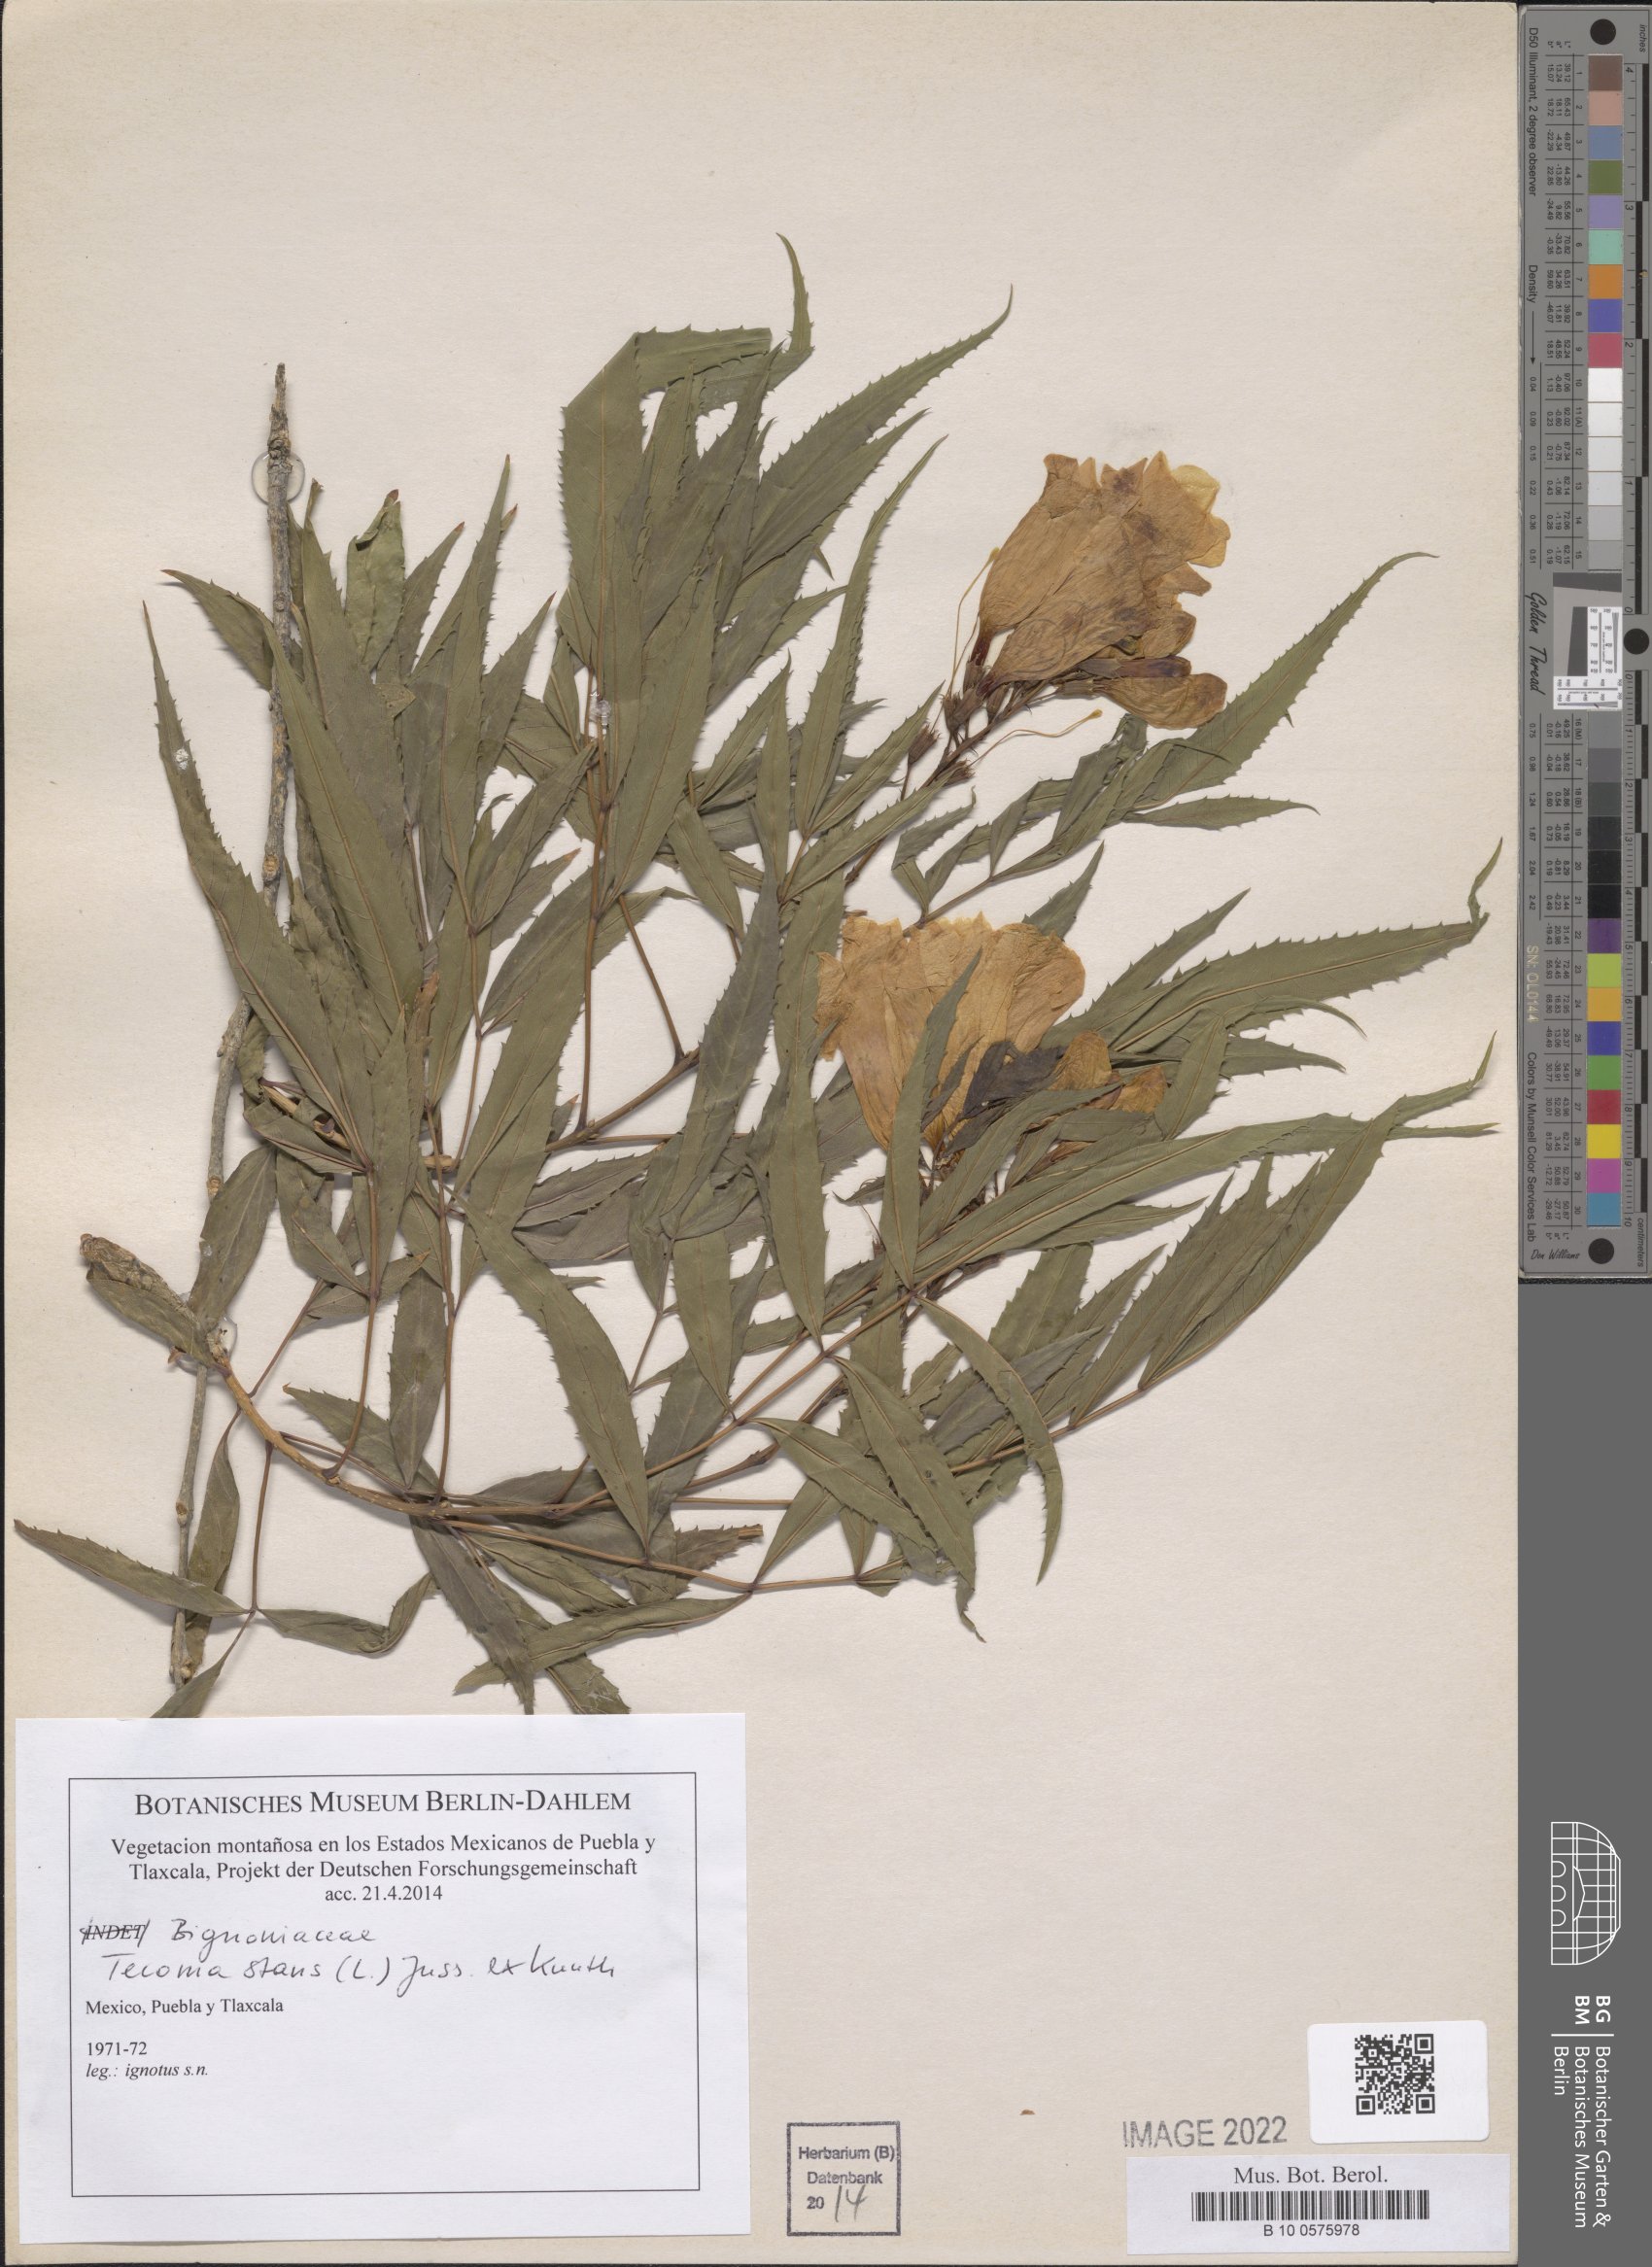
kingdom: Plantae
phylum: Tracheophyta
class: Magnoliopsida
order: Lamiales
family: Bignoniaceae
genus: Tecoma
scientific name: Tecoma stans
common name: Yellow trumpetbush
